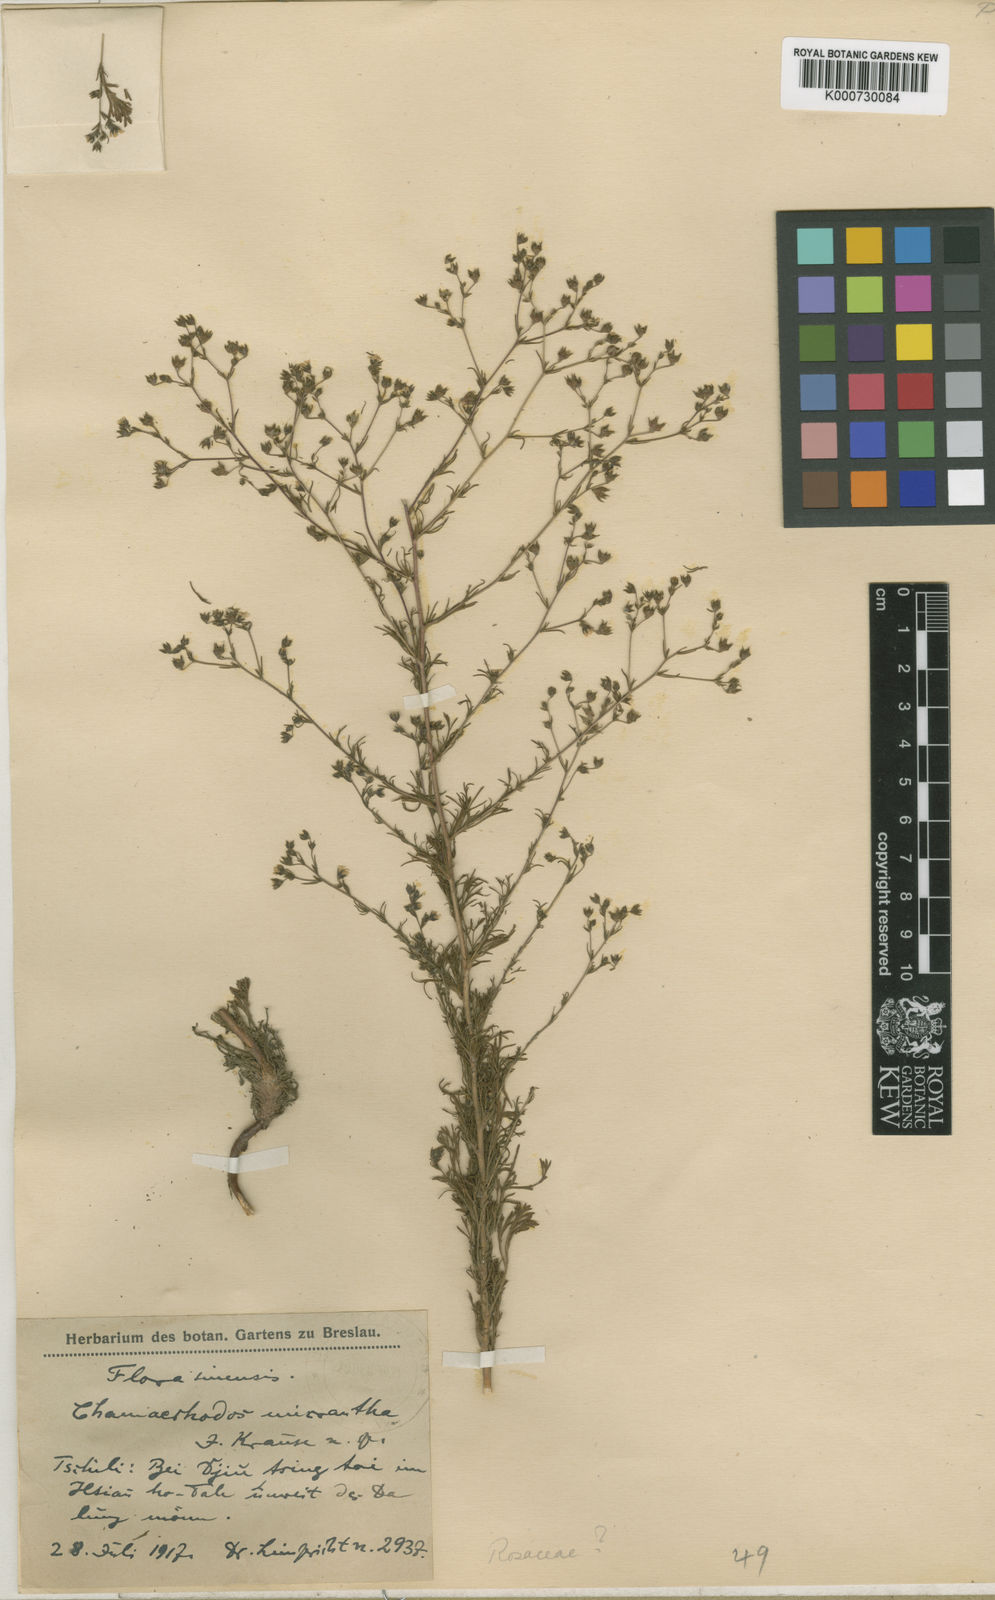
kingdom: Plantae
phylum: Tracheophyta
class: Magnoliopsida
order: Rosales
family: Rosaceae
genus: Chamaerhodos
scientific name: Chamaerhodos erecta
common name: American chamaerhodos
